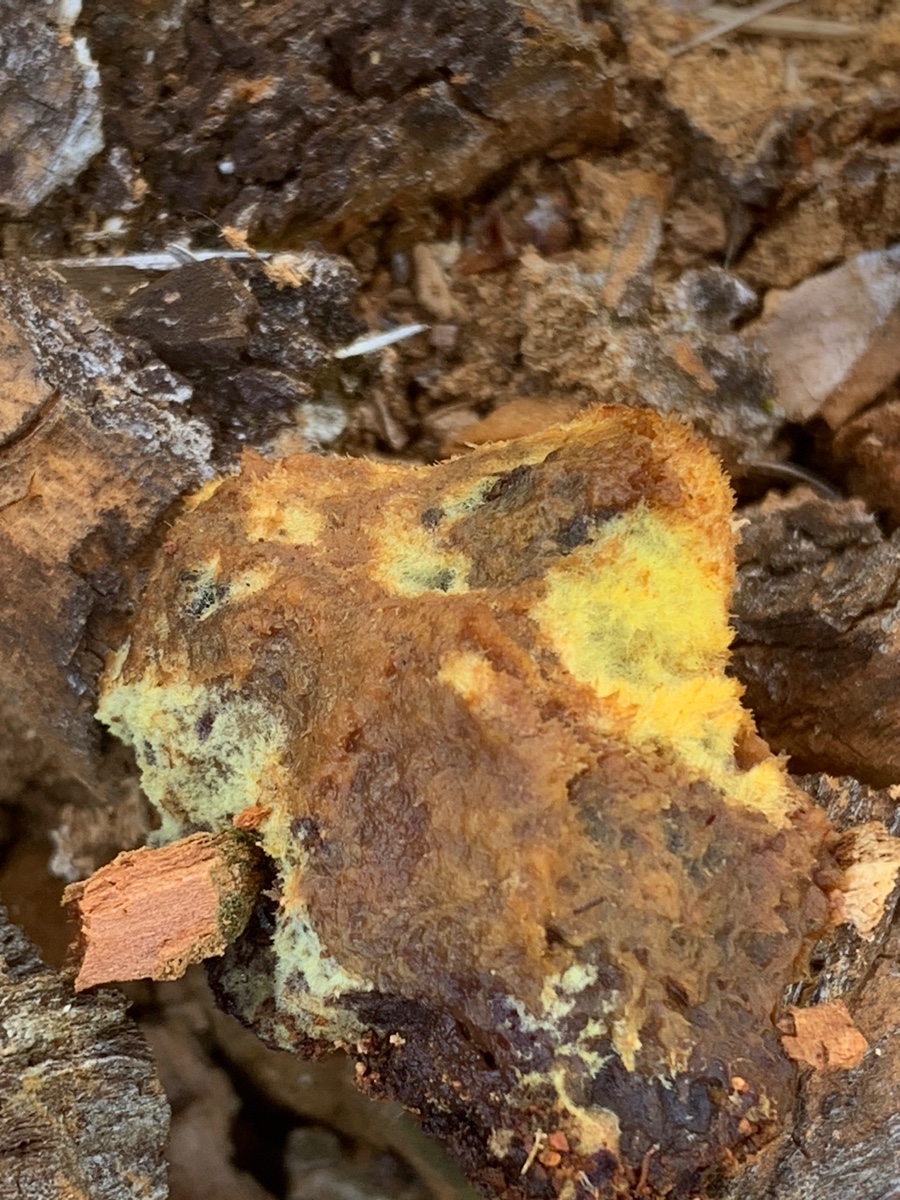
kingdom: Fungi
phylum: Basidiomycota
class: Agaricomycetes
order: Polyporales
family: Laetiporaceae
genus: Phaeolus
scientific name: Phaeolus schweinitzii
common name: brunporesvamp
